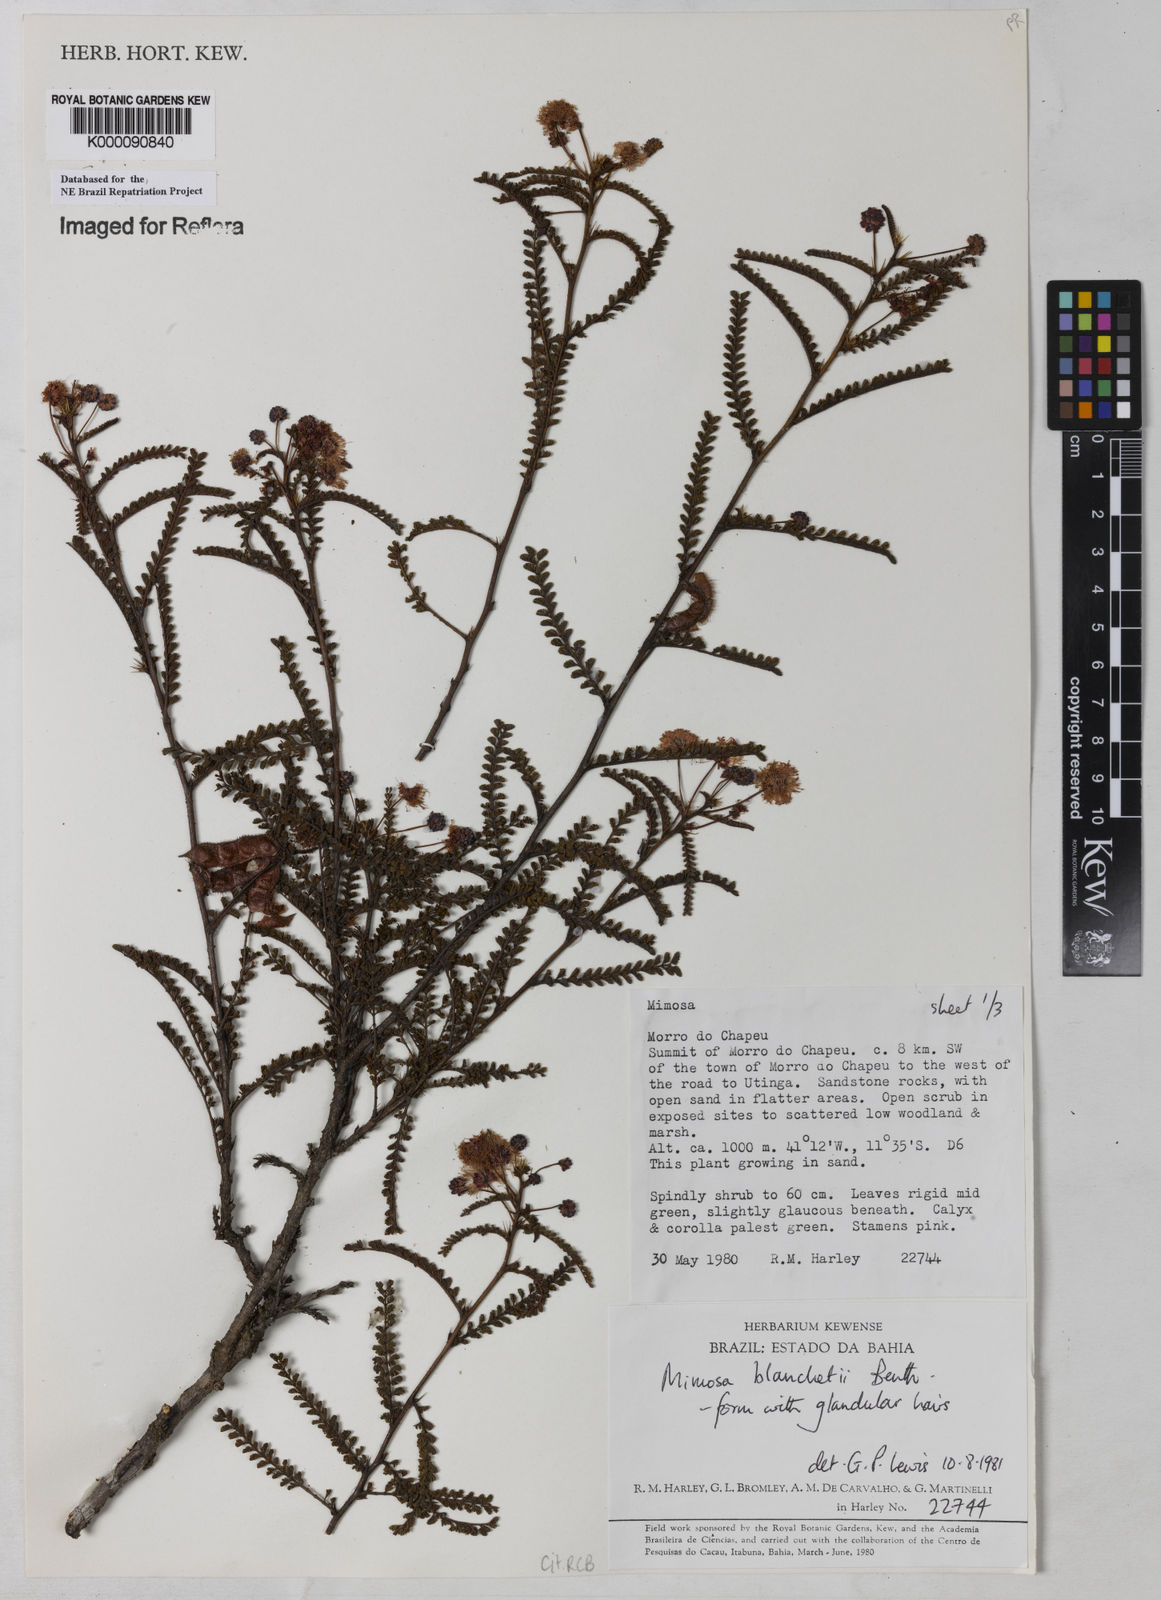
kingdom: Plantae
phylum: Tracheophyta
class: Magnoliopsida
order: Fabales
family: Fabaceae
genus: Mimosa
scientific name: Mimosa blanchetii
